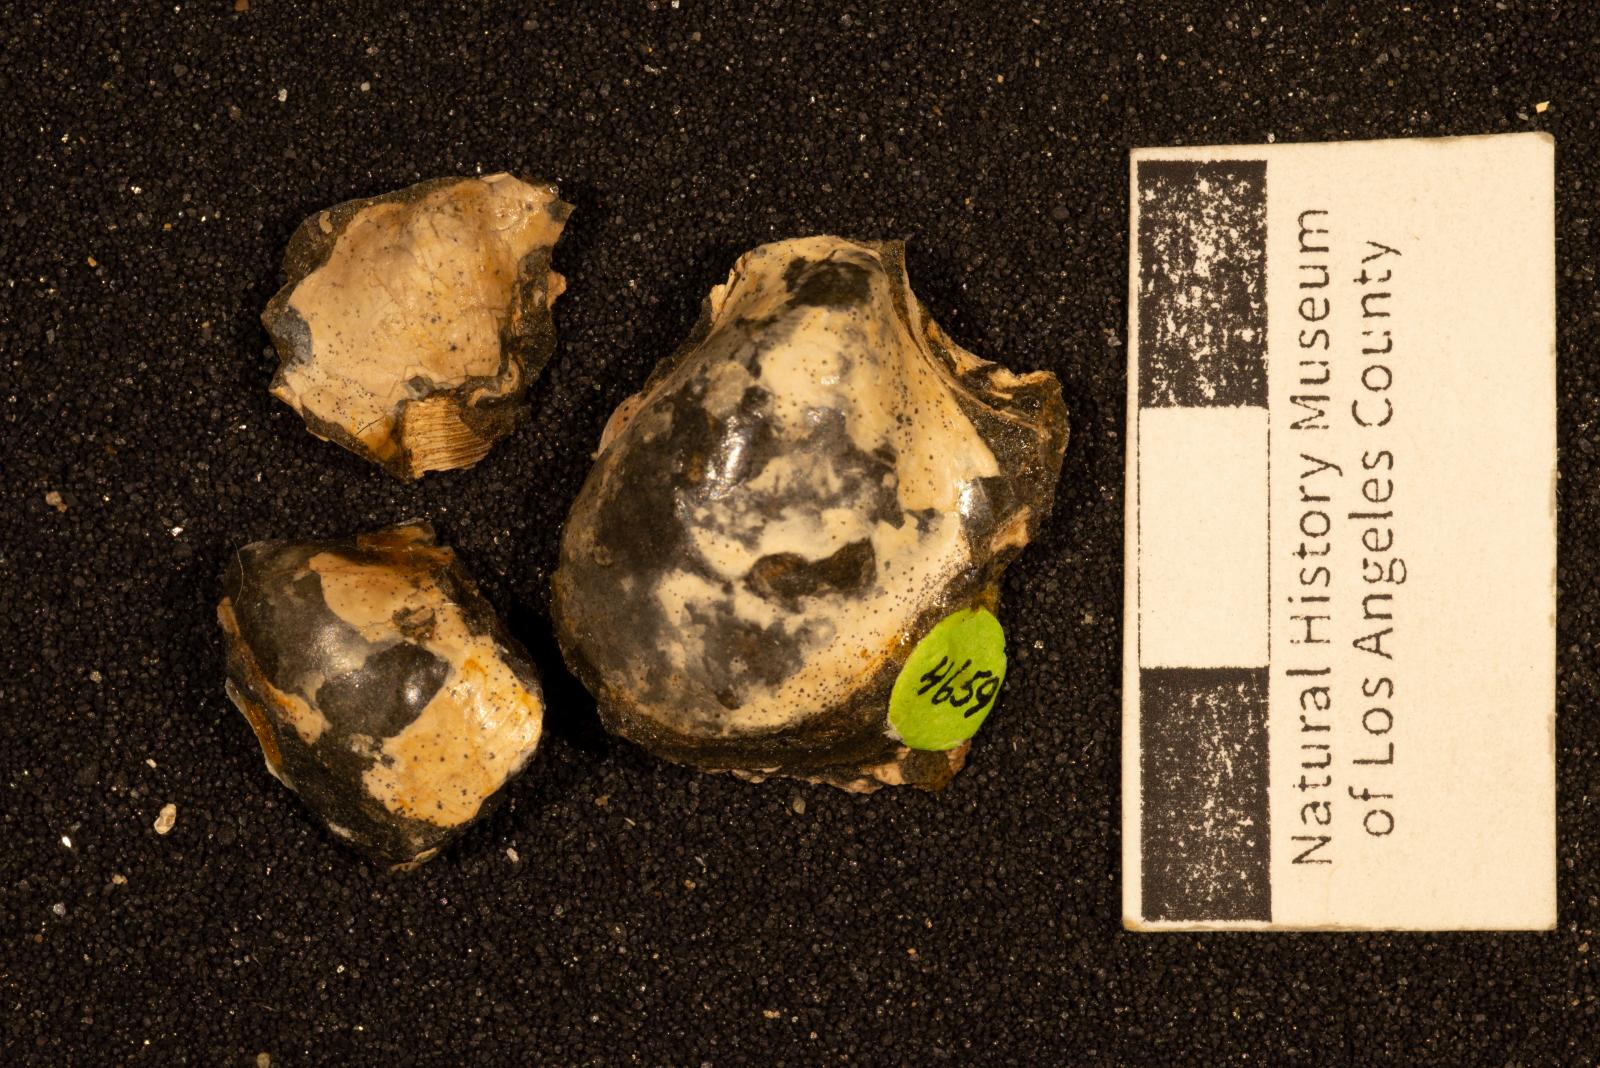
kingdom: Animalia
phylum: Mollusca
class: Bivalvia
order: Ostreida
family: Pteriidae
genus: Pteria
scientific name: Pteria pellucida
